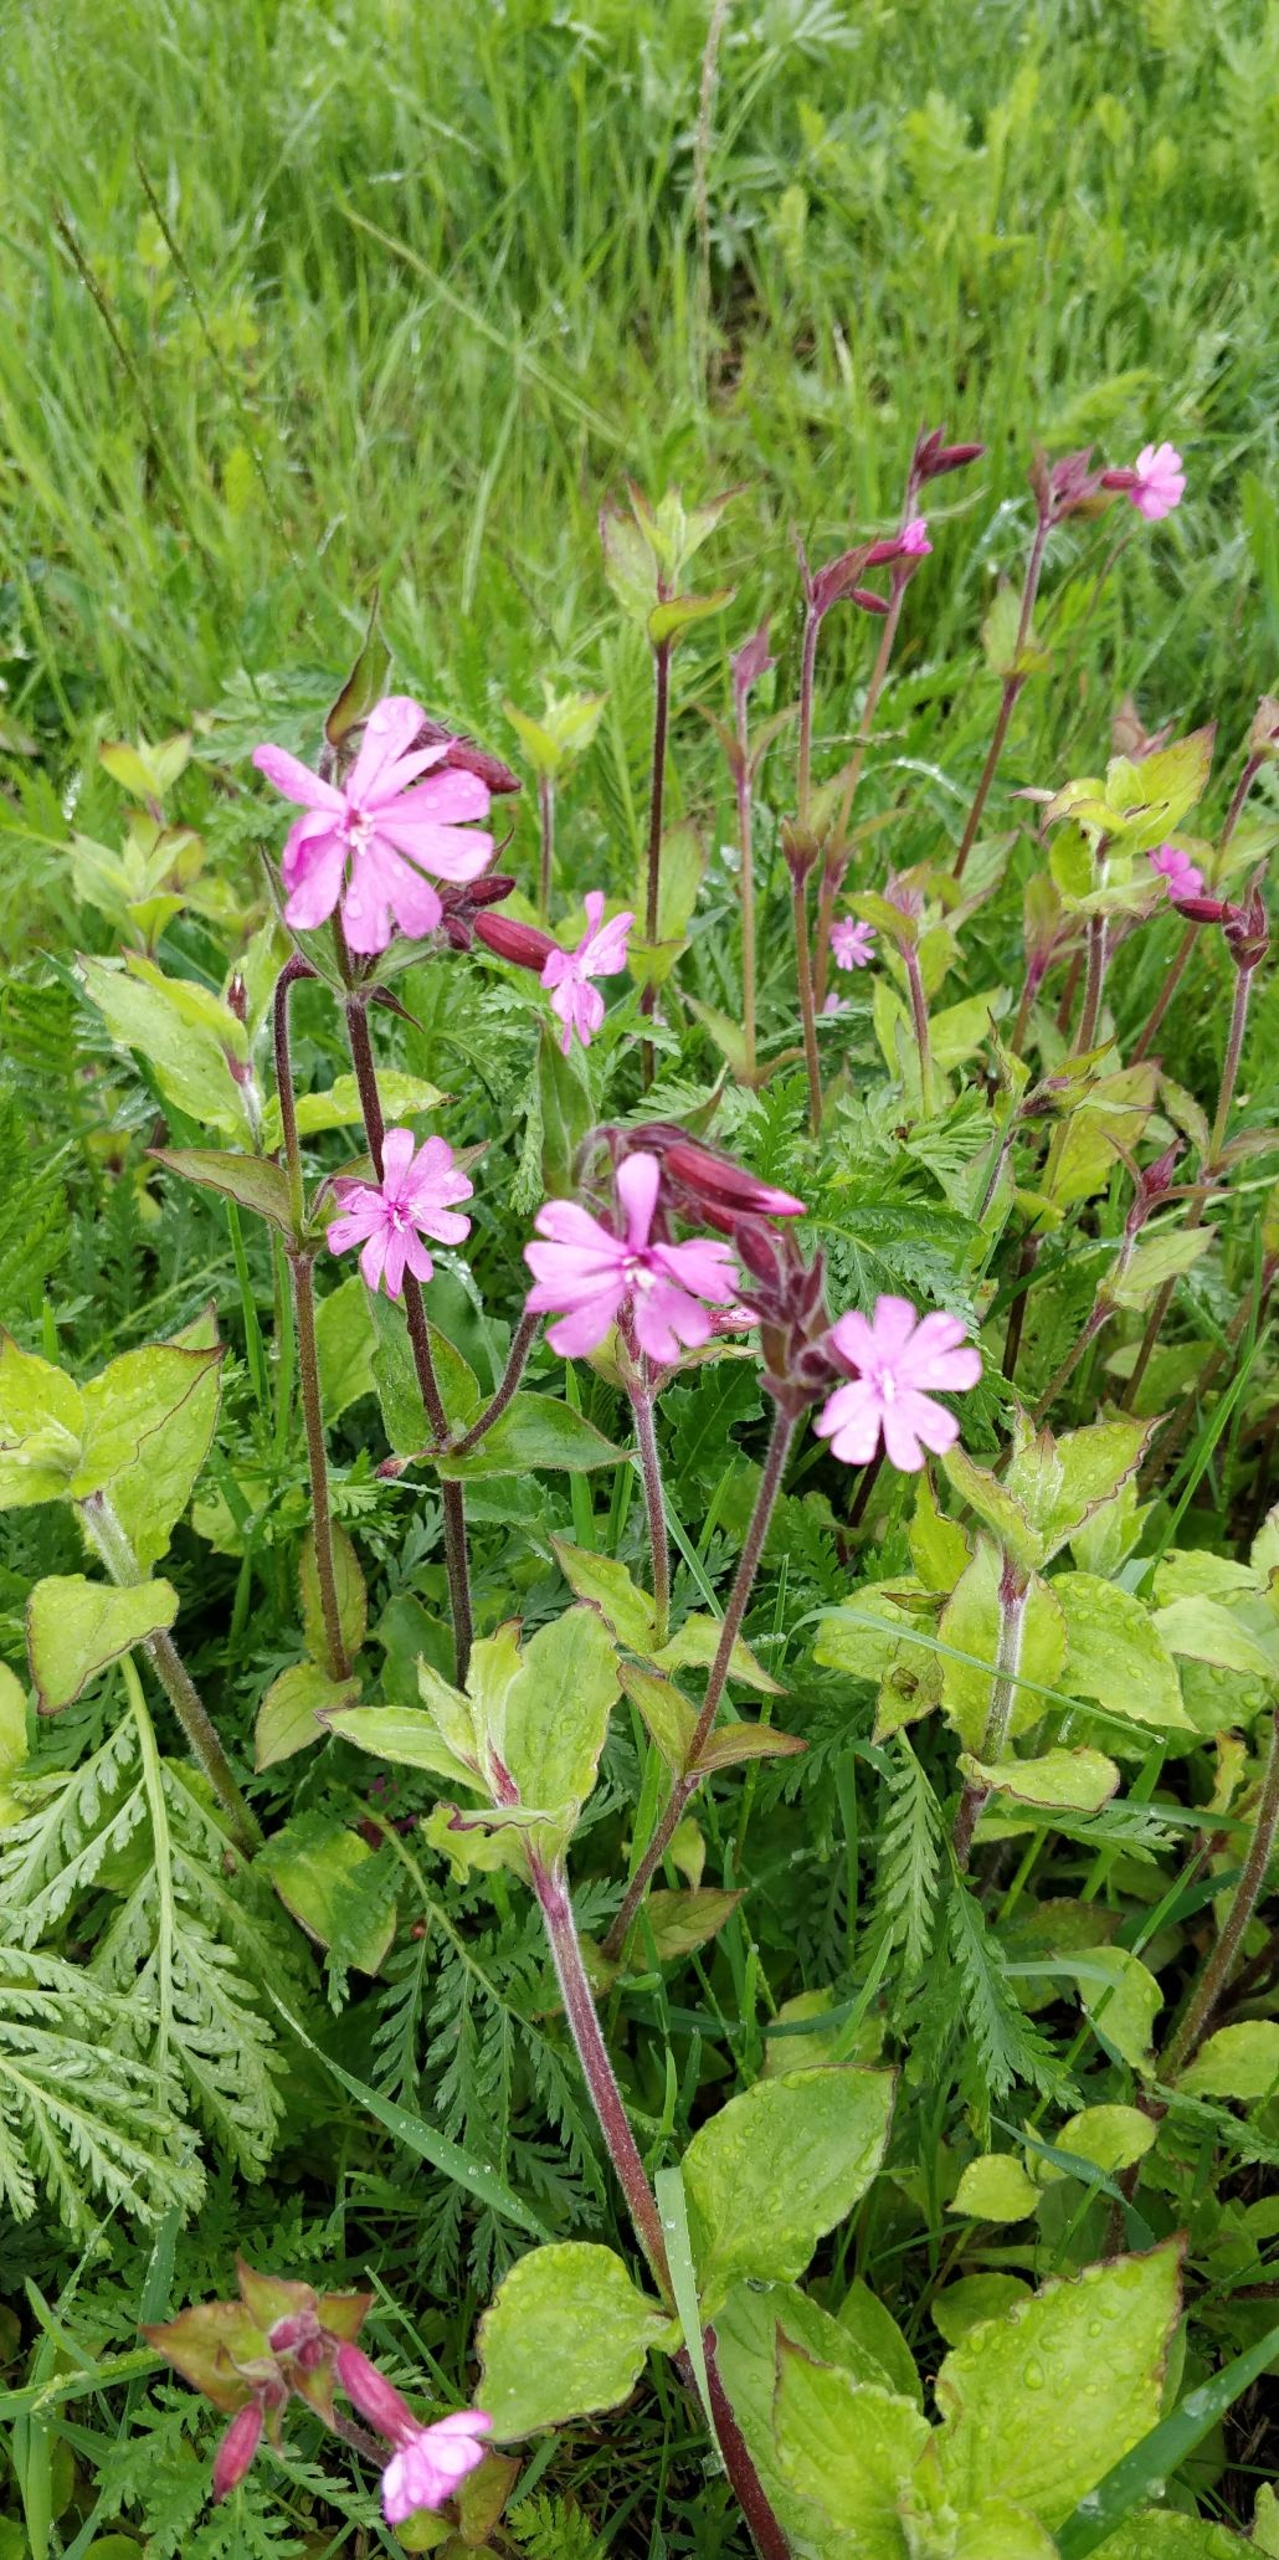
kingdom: Plantae
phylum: Tracheophyta
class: Magnoliopsida
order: Caryophyllales
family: Caryophyllaceae
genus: Silene
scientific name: Silene dioica
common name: Dagpragtstjerne
